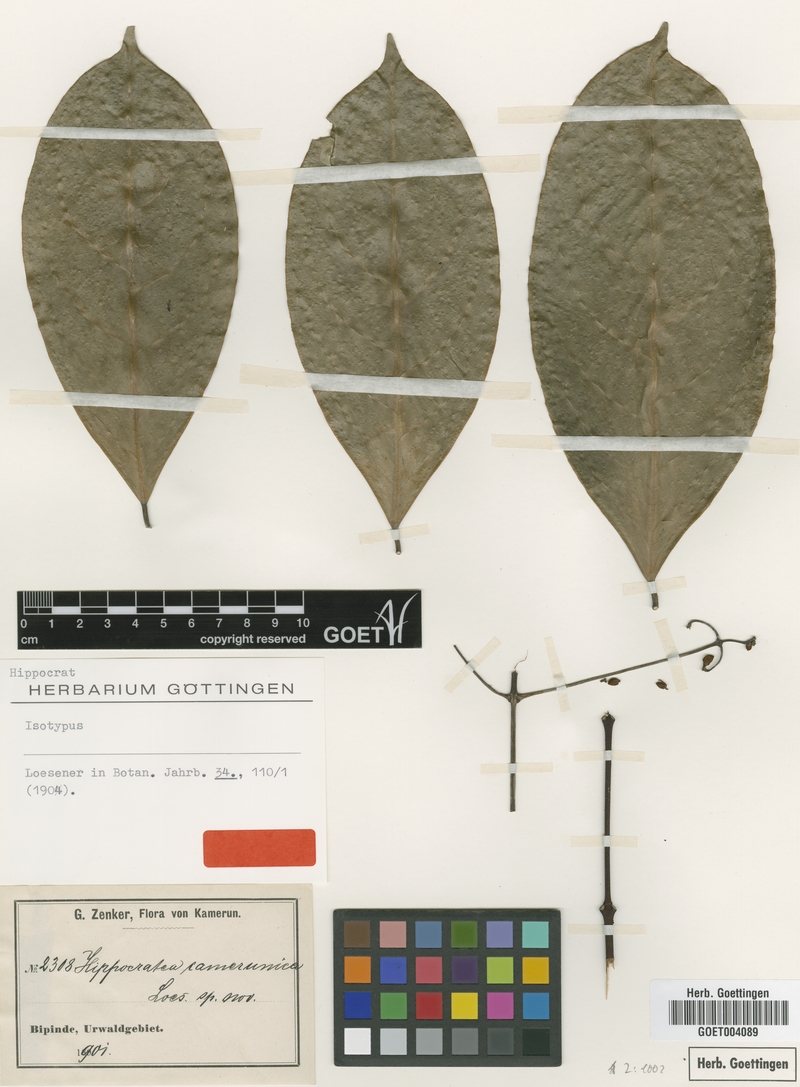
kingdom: Plantae
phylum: Tracheophyta
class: Magnoliopsida
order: Celastrales
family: Celastraceae
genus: Loeseneriella
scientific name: Loeseneriella camerunica
